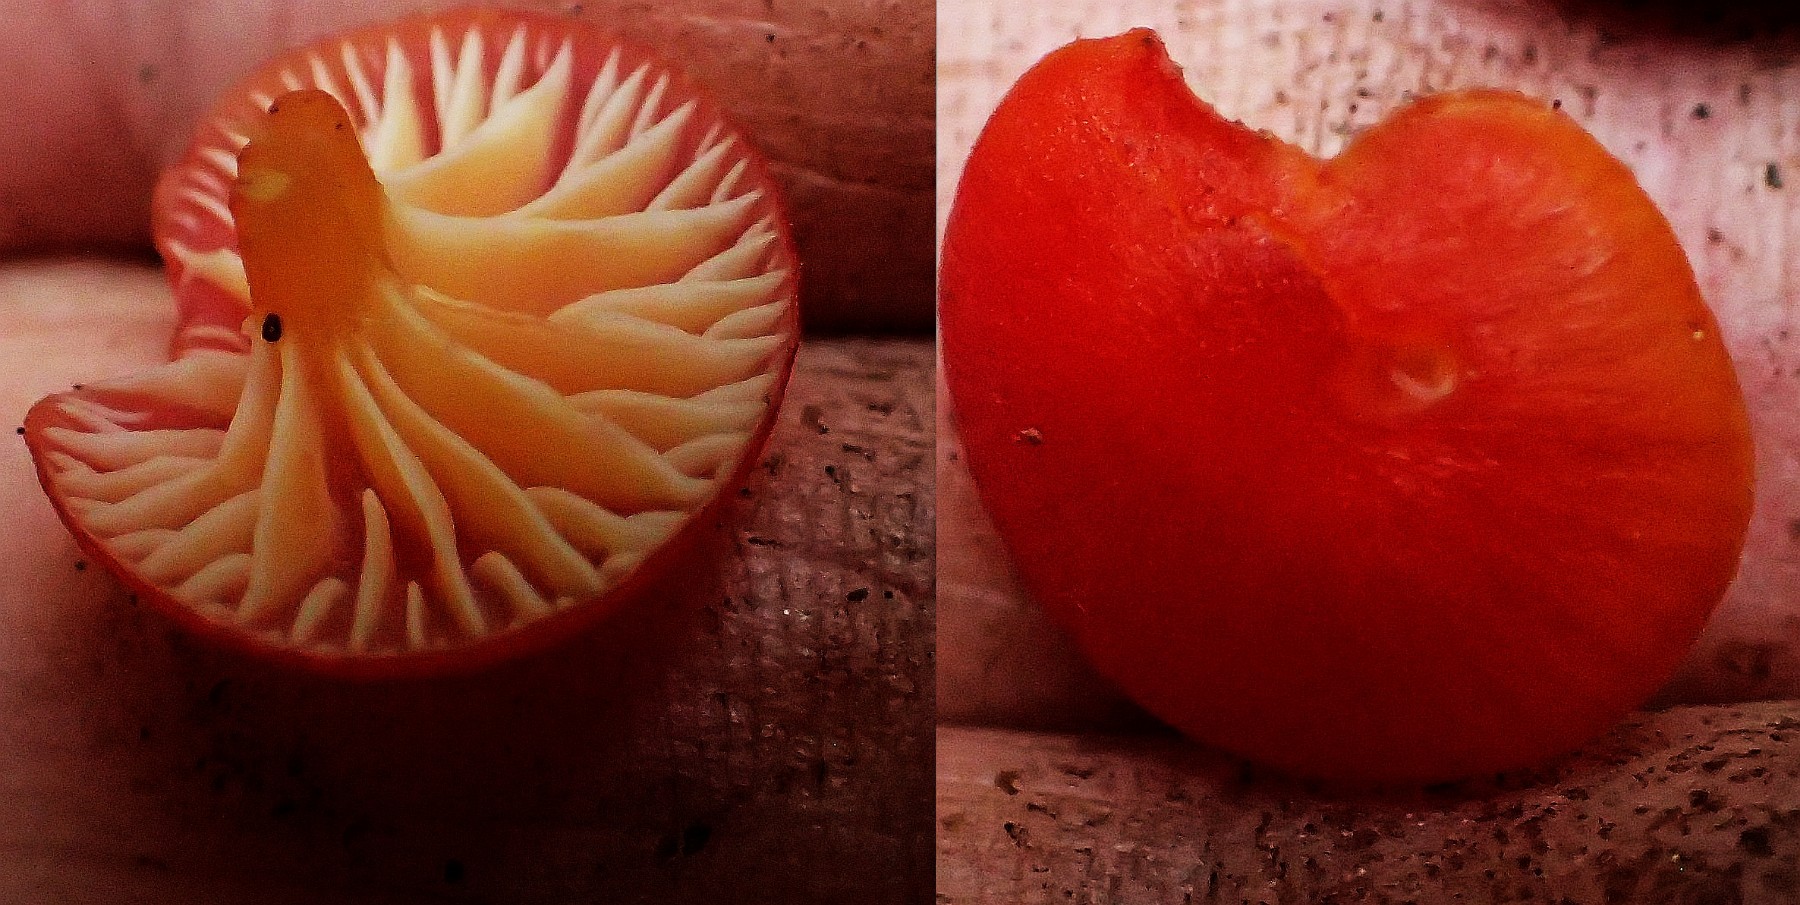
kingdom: Fungi
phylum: Basidiomycota
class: Agaricomycetes
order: Agaricales
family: Hygrophoraceae
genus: Hygrocybe
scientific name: Hygrocybe miniata
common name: mønje-vokshat
